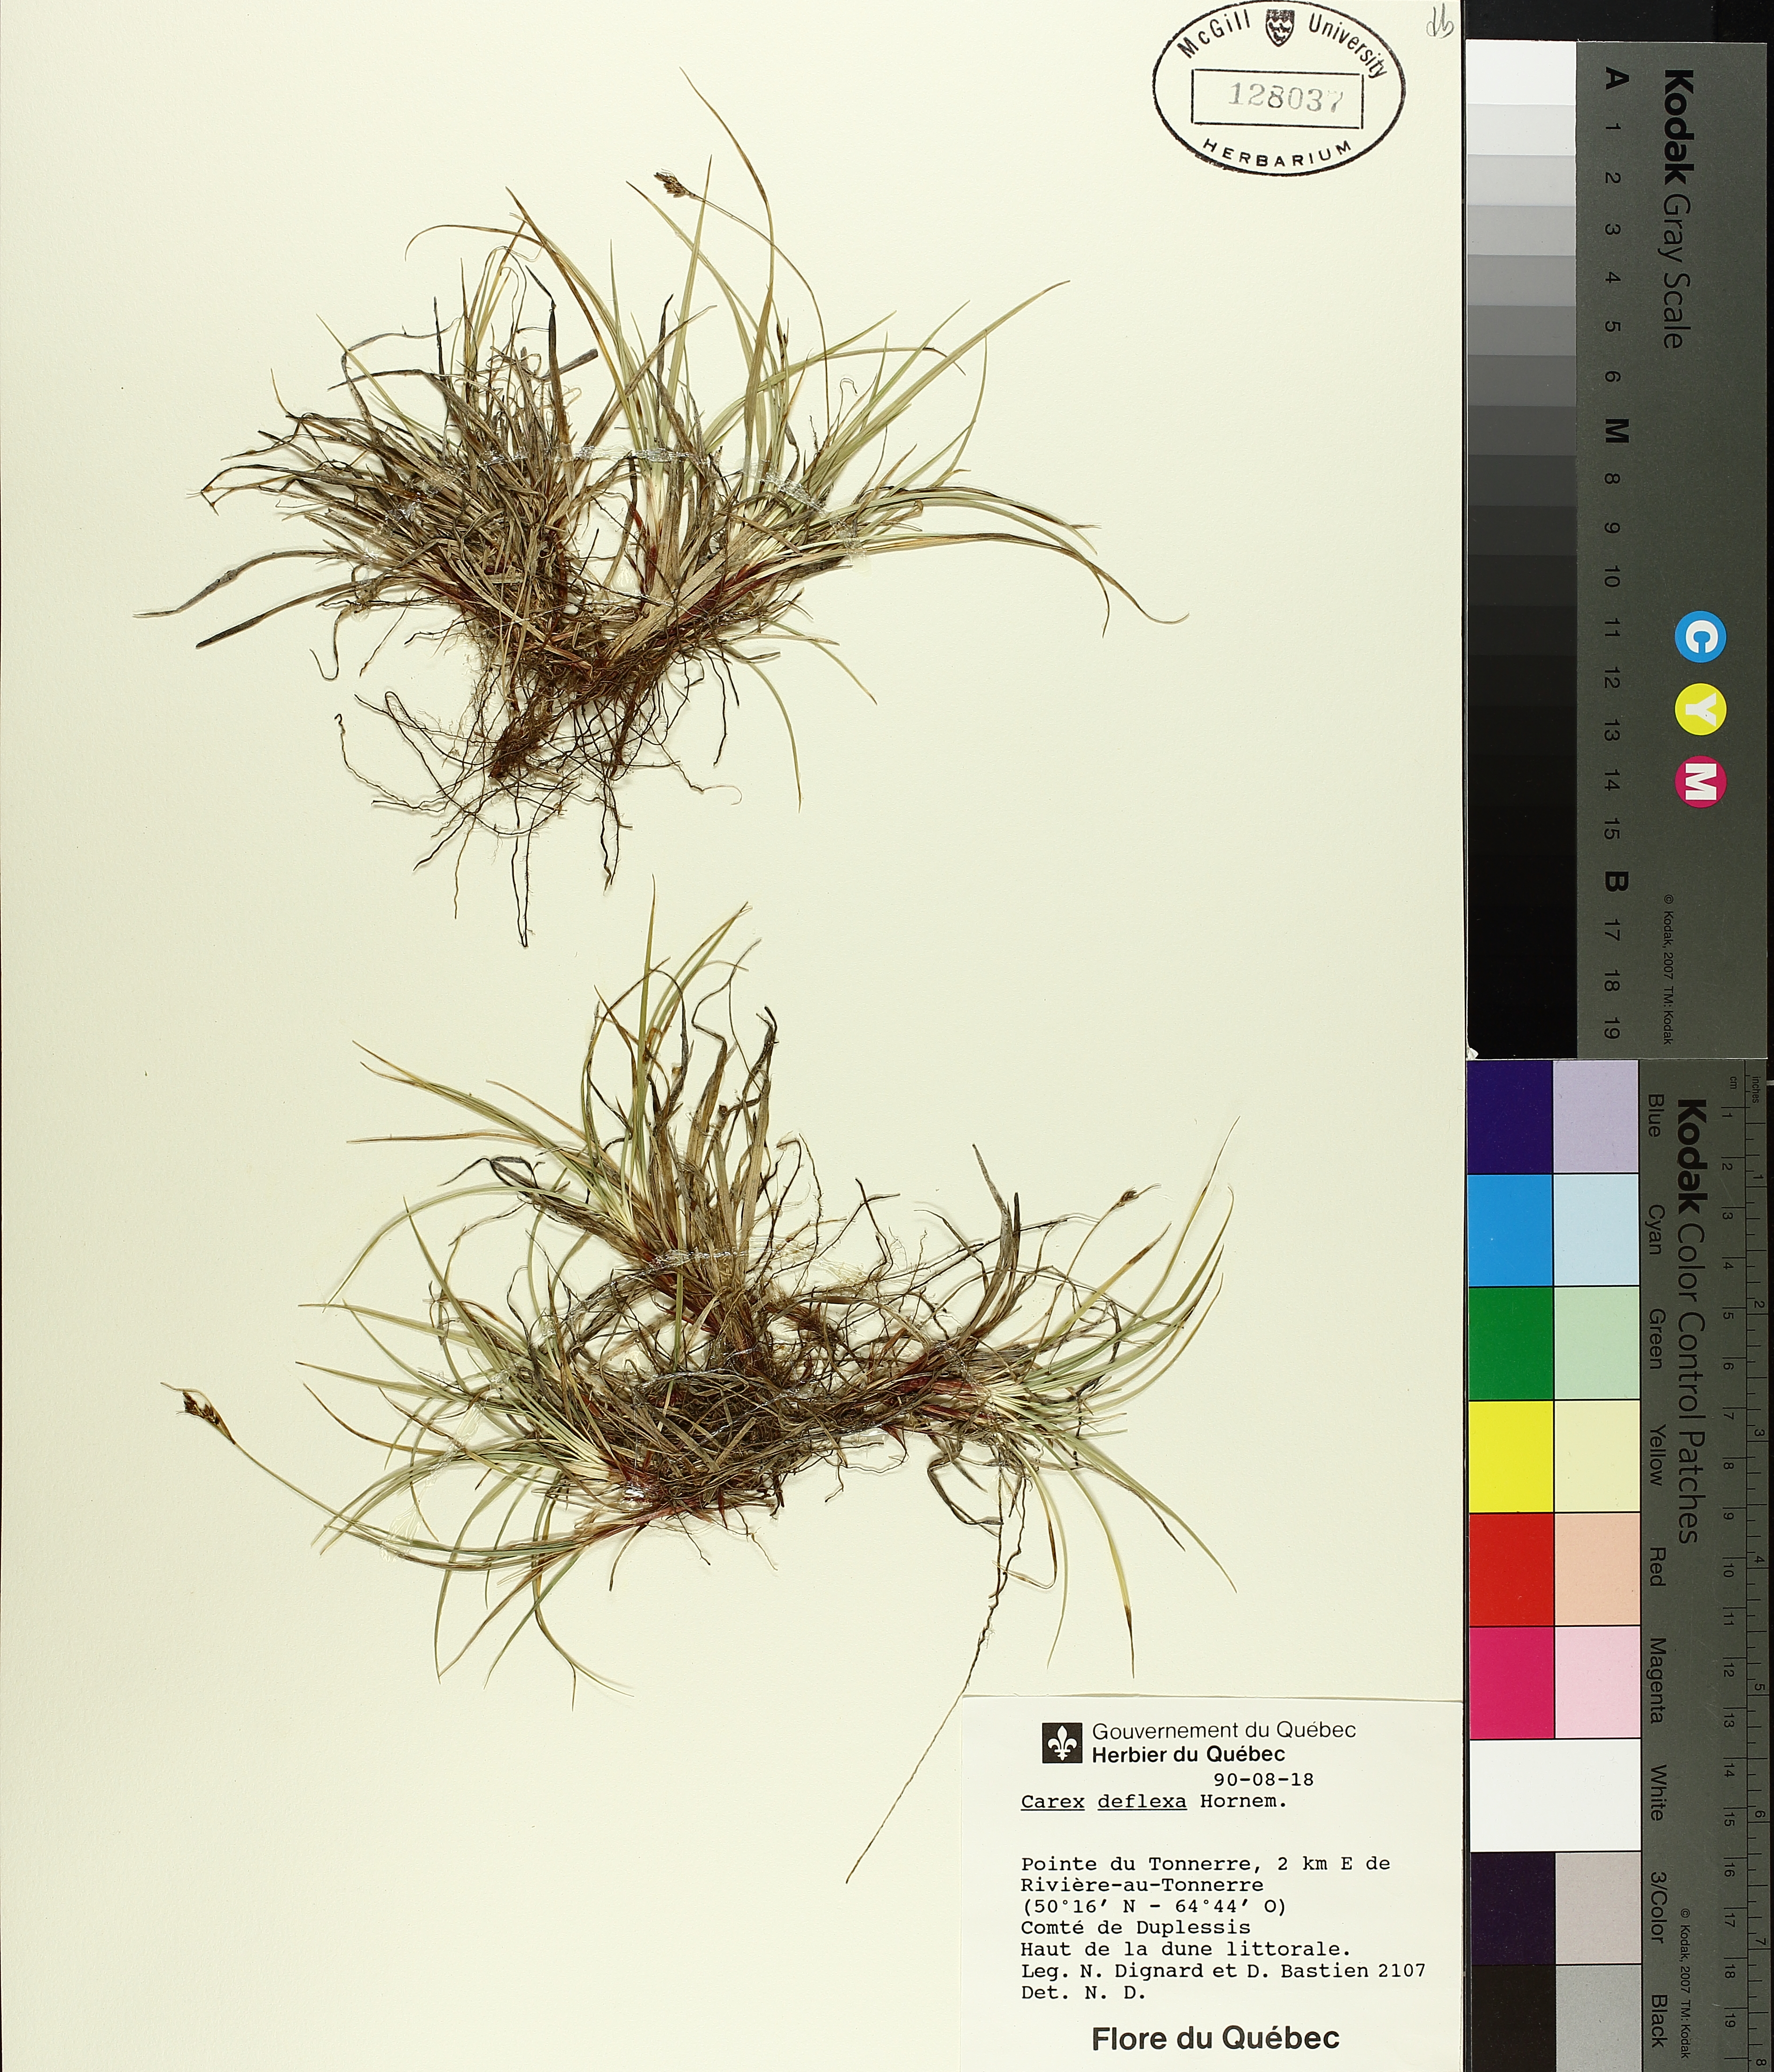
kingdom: Plantae
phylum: Tracheophyta
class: Liliopsida
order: Poales
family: Cyperaceae
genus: Carex
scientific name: Carex deflexa
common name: Bent northern sedge
